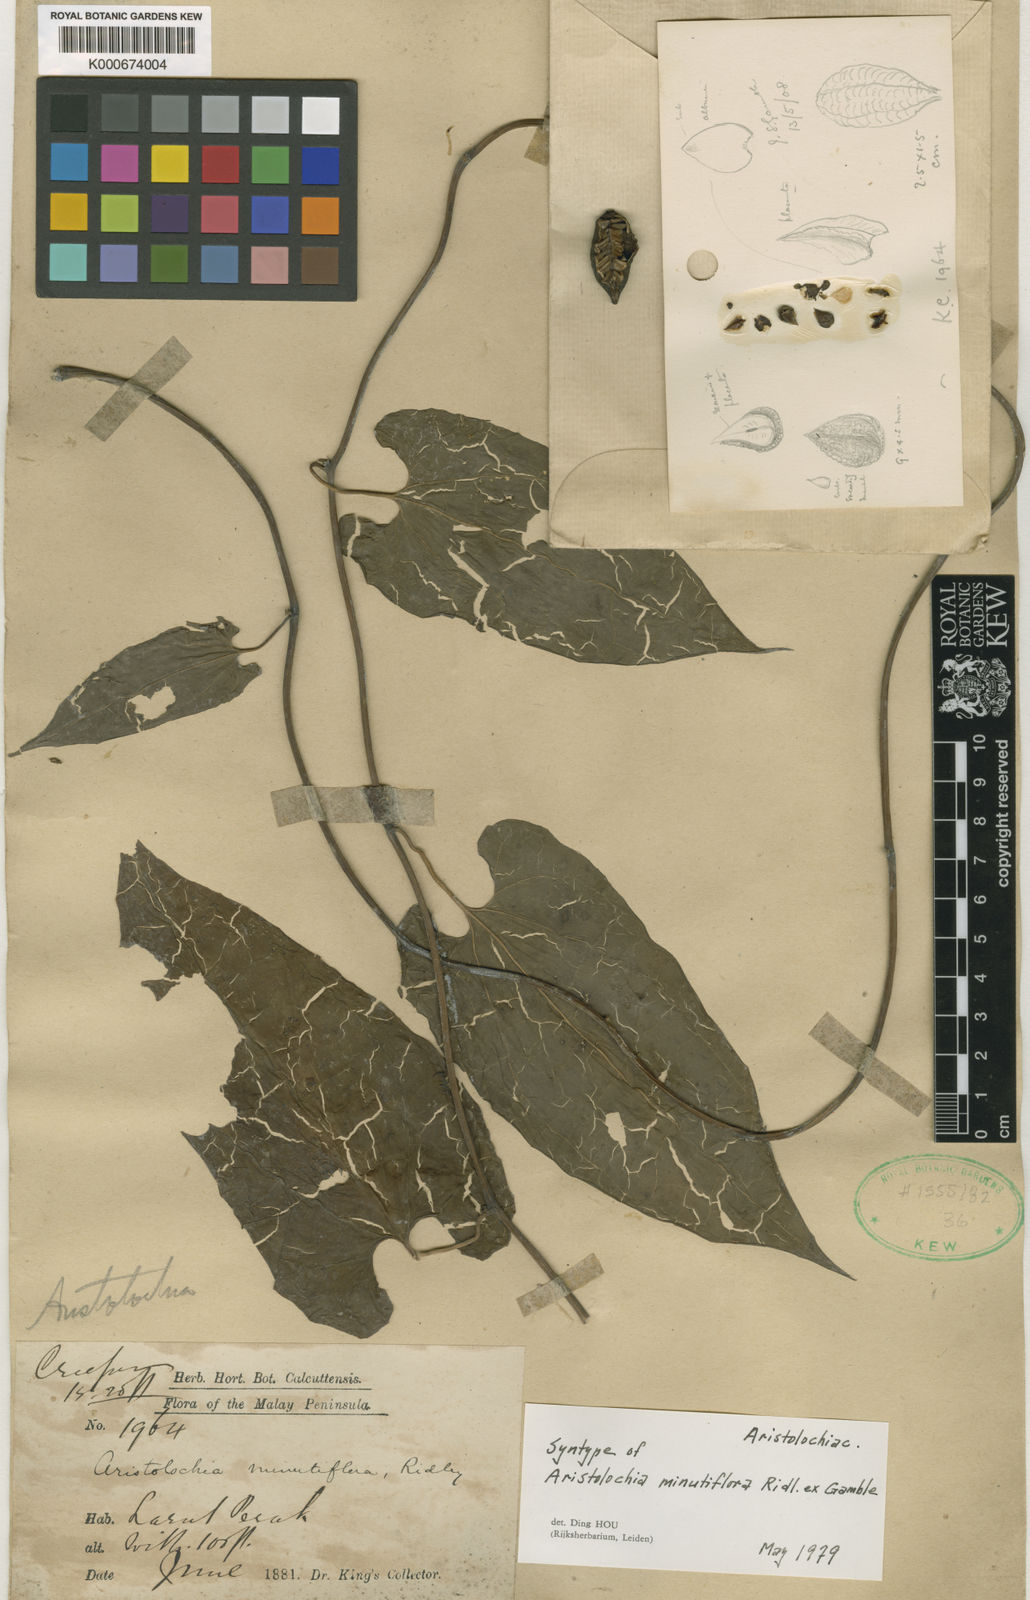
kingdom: Plantae
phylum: Tracheophyta
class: Magnoliopsida
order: Piperales
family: Aristolochiaceae
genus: Aristolochia
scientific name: Aristolochia minutiflora
